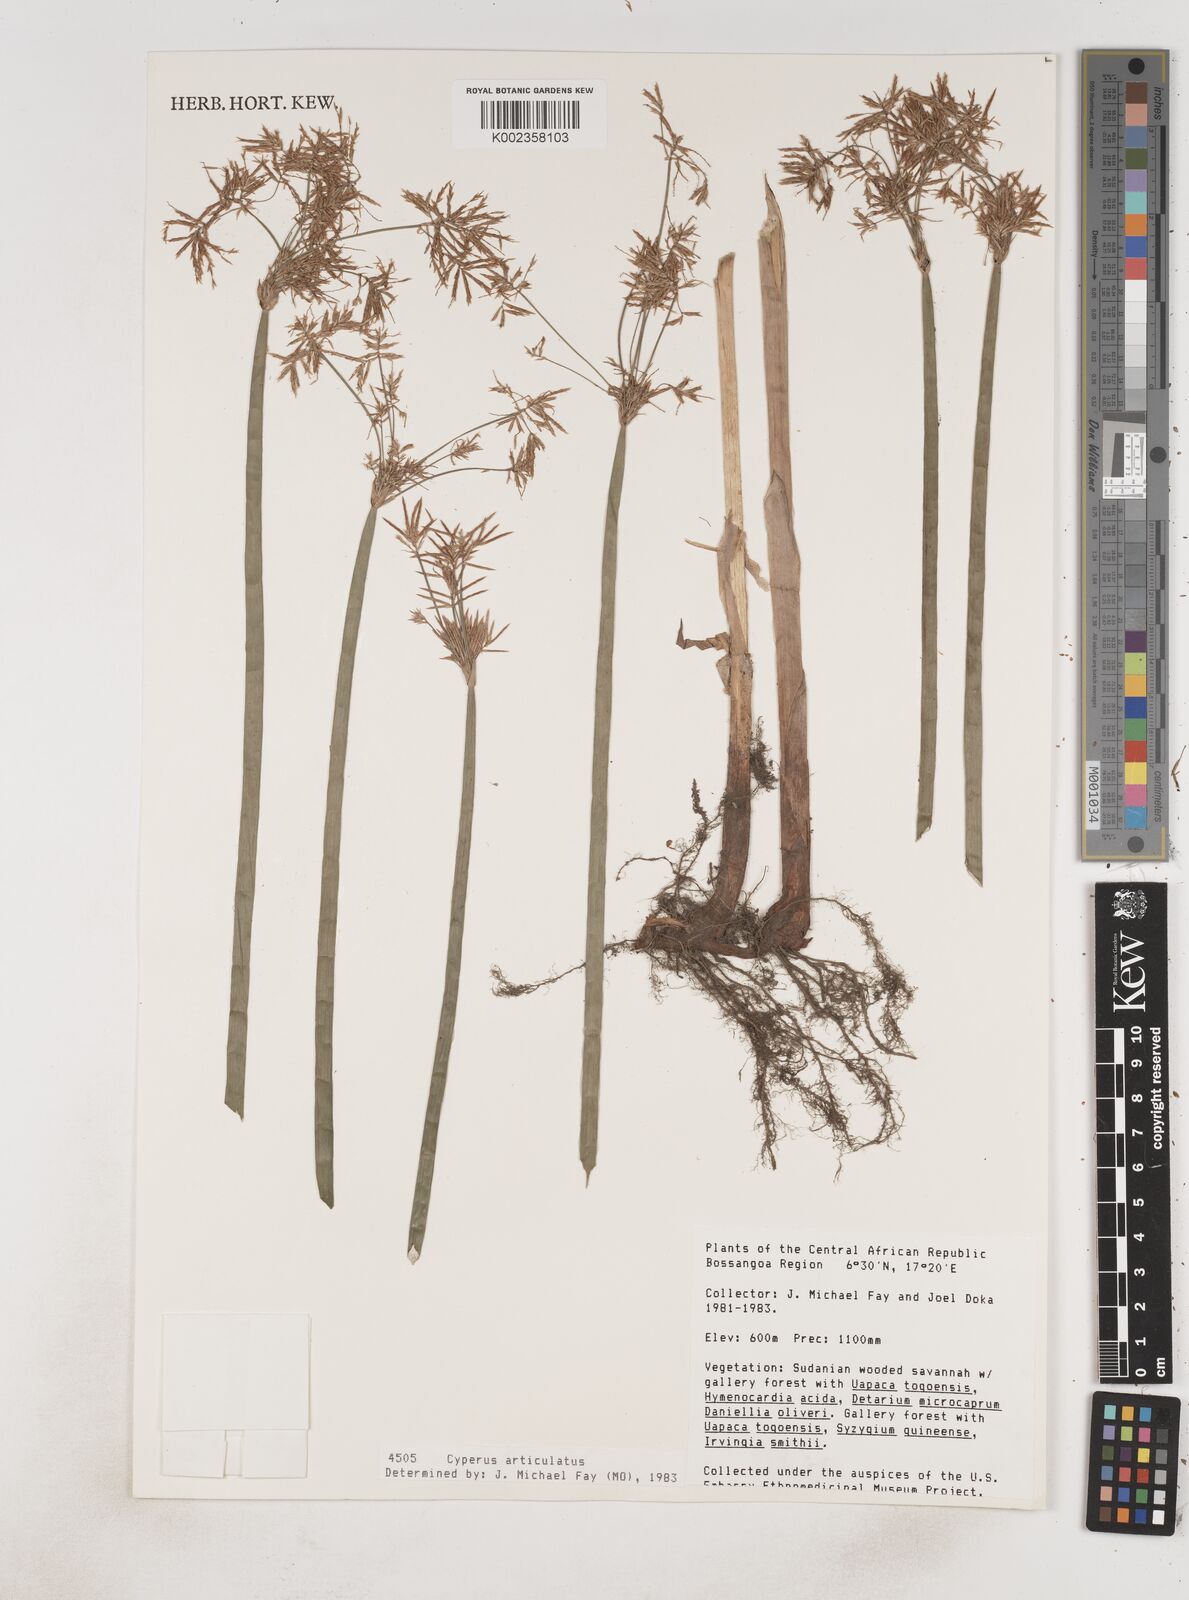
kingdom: Plantae
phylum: Tracheophyta
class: Liliopsida
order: Poales
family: Cyperaceae
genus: Cyperus
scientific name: Cyperus articulatus
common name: Jointed flatsedge
